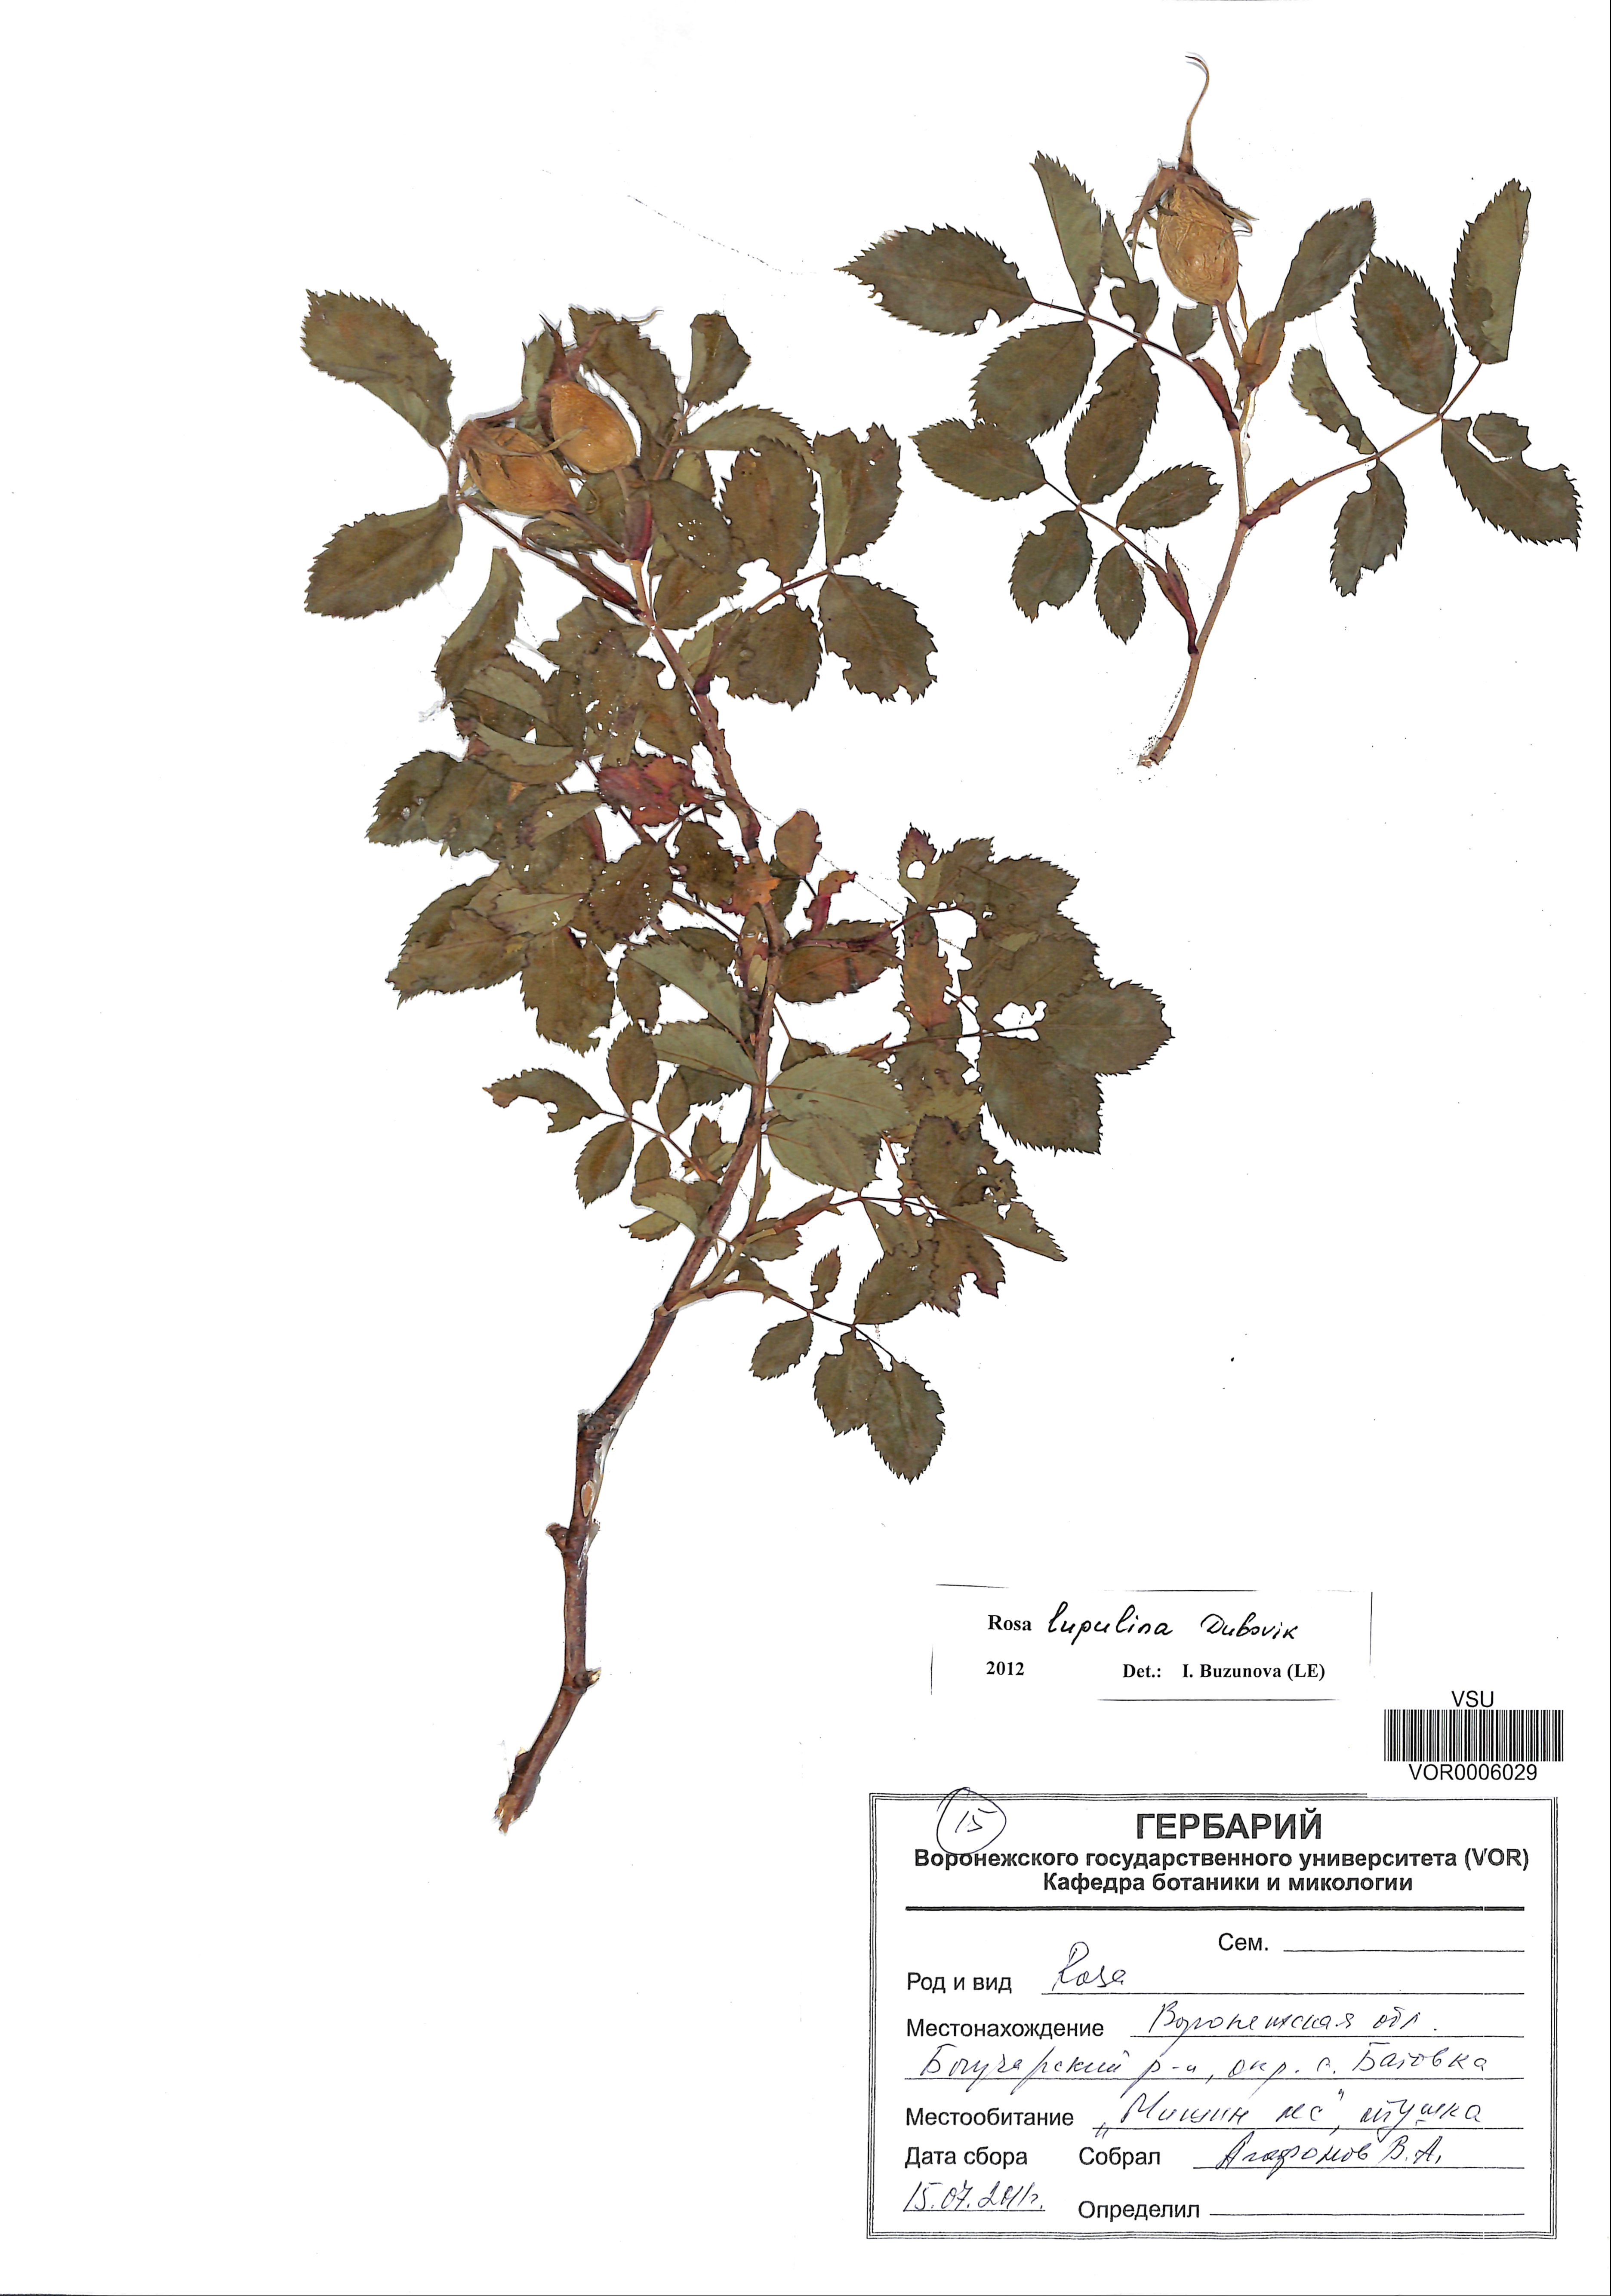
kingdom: Plantae
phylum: Tracheophyta
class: Magnoliopsida
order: Rosales
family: Rosaceae
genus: Rosa
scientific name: Rosa
